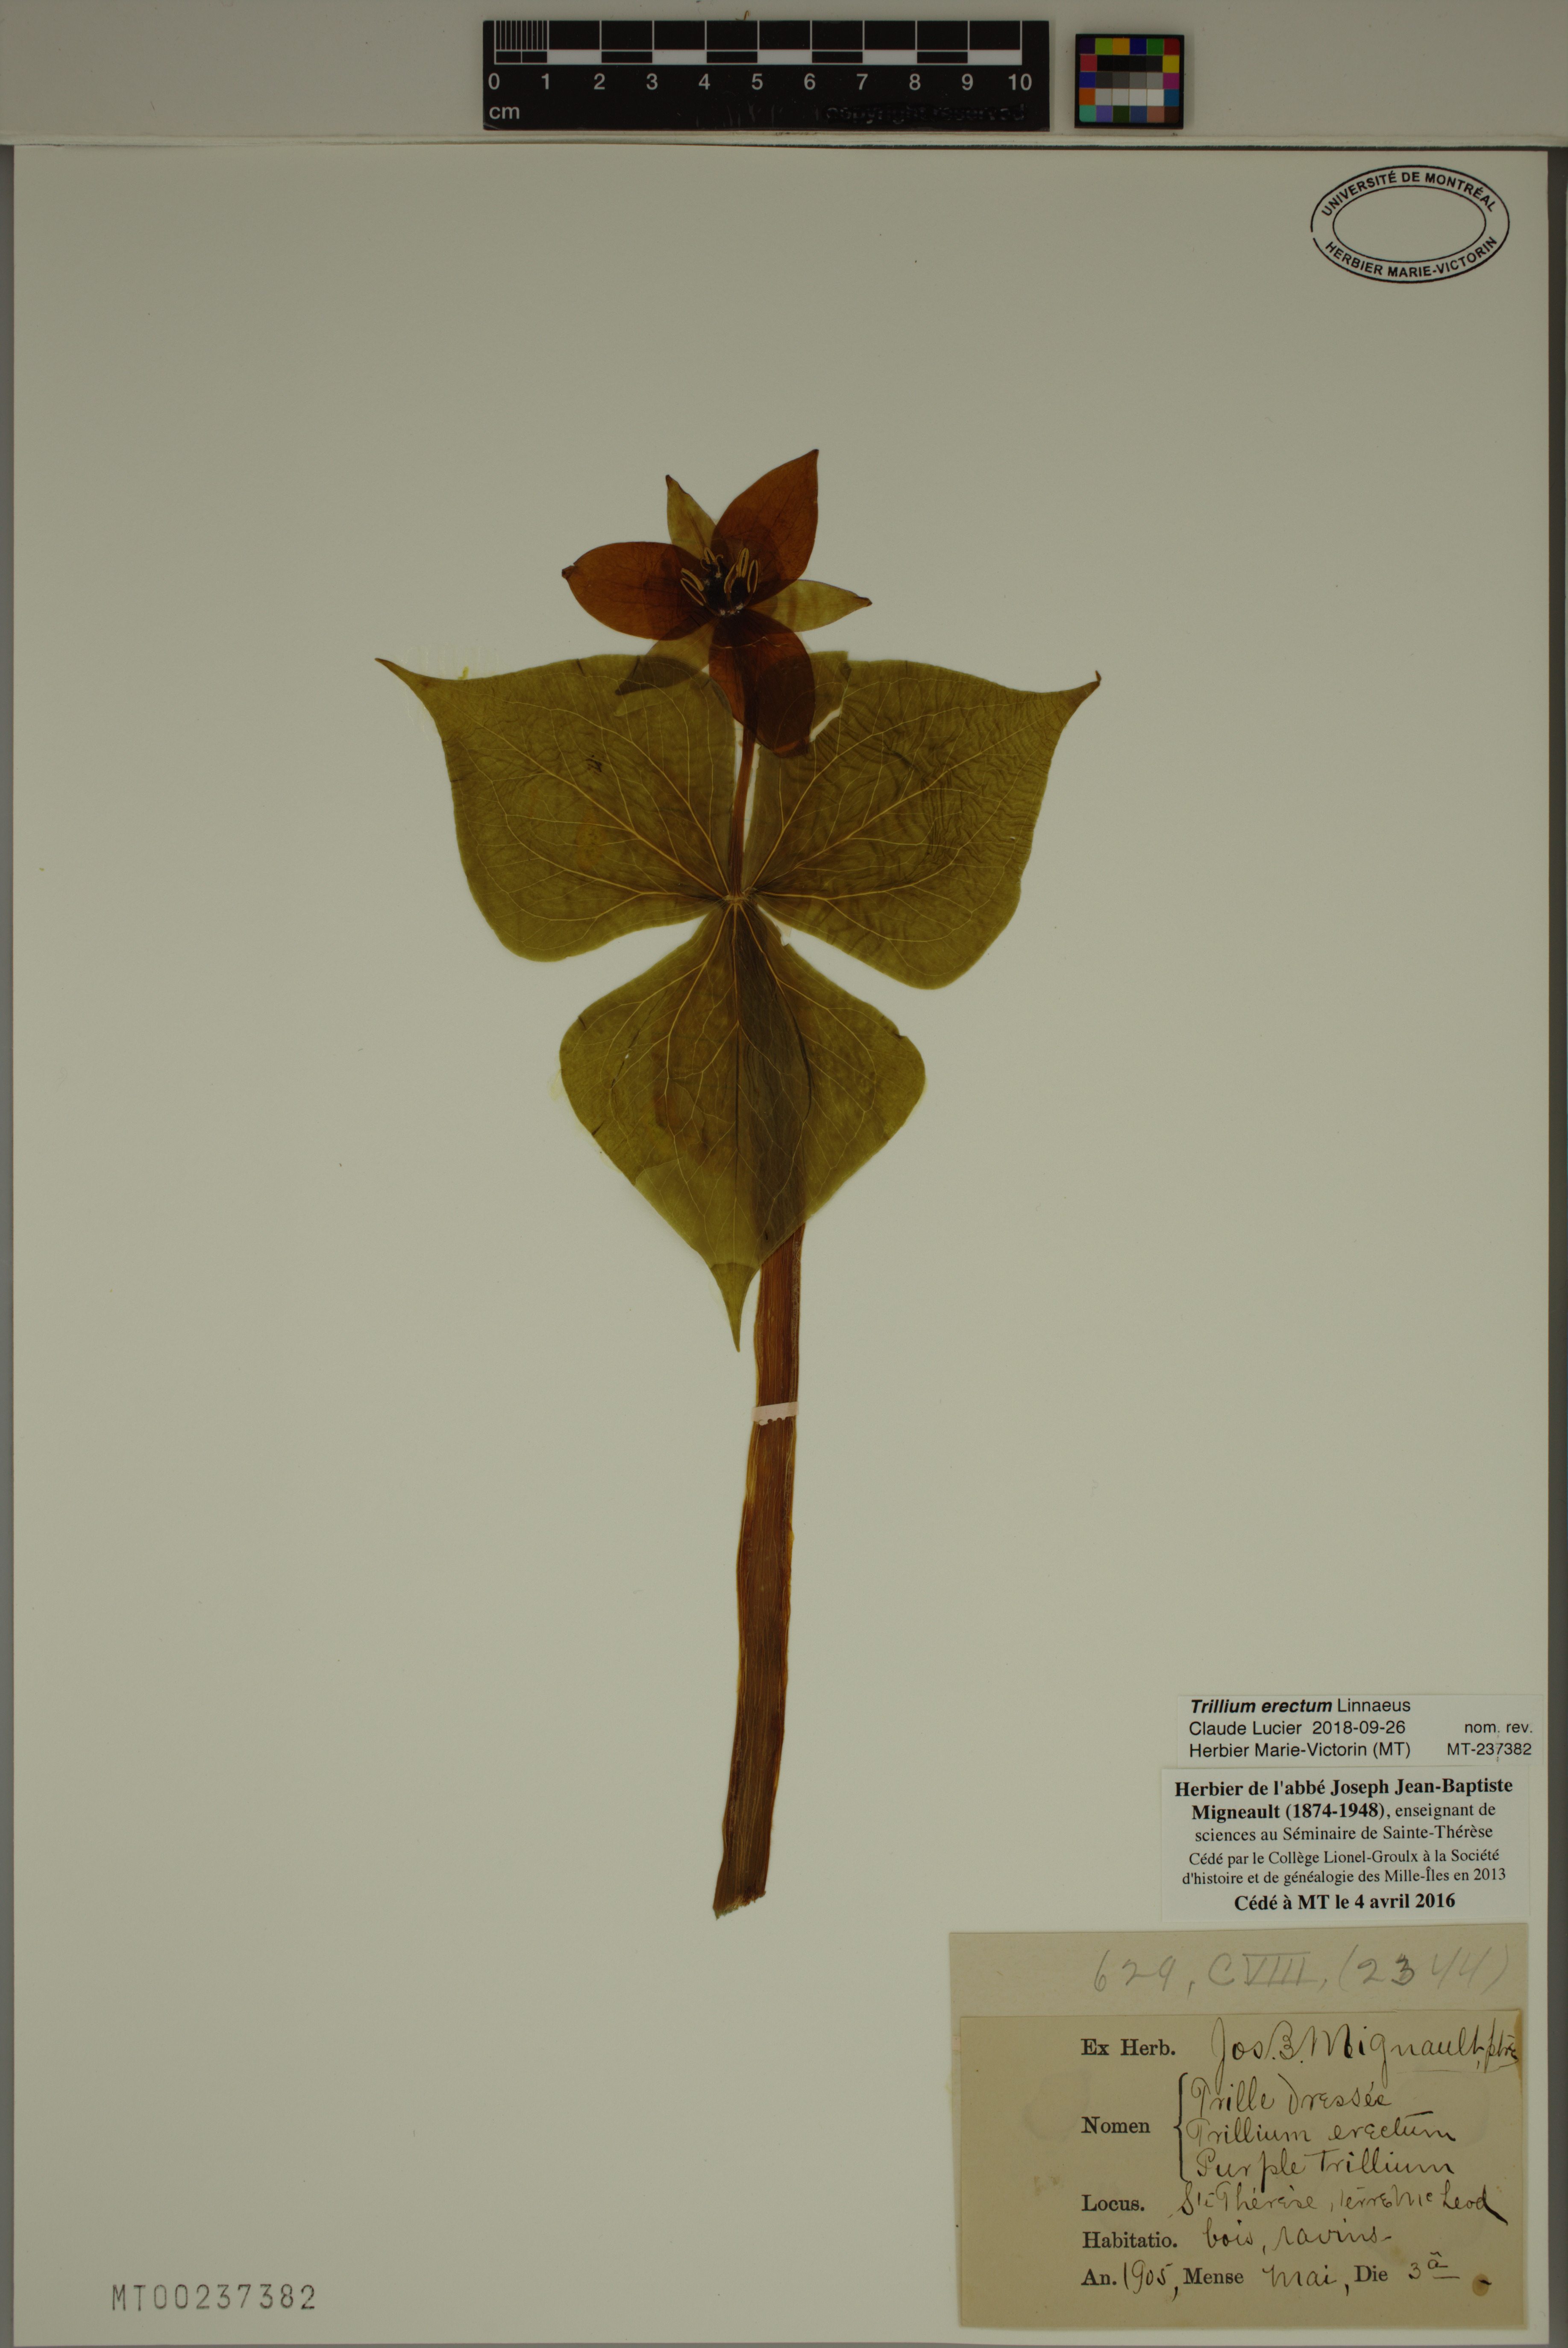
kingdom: Plantae
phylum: Tracheophyta
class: Liliopsida
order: Liliales
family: Melanthiaceae
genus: Trillium
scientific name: Trillium erectum
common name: Purple trillium
